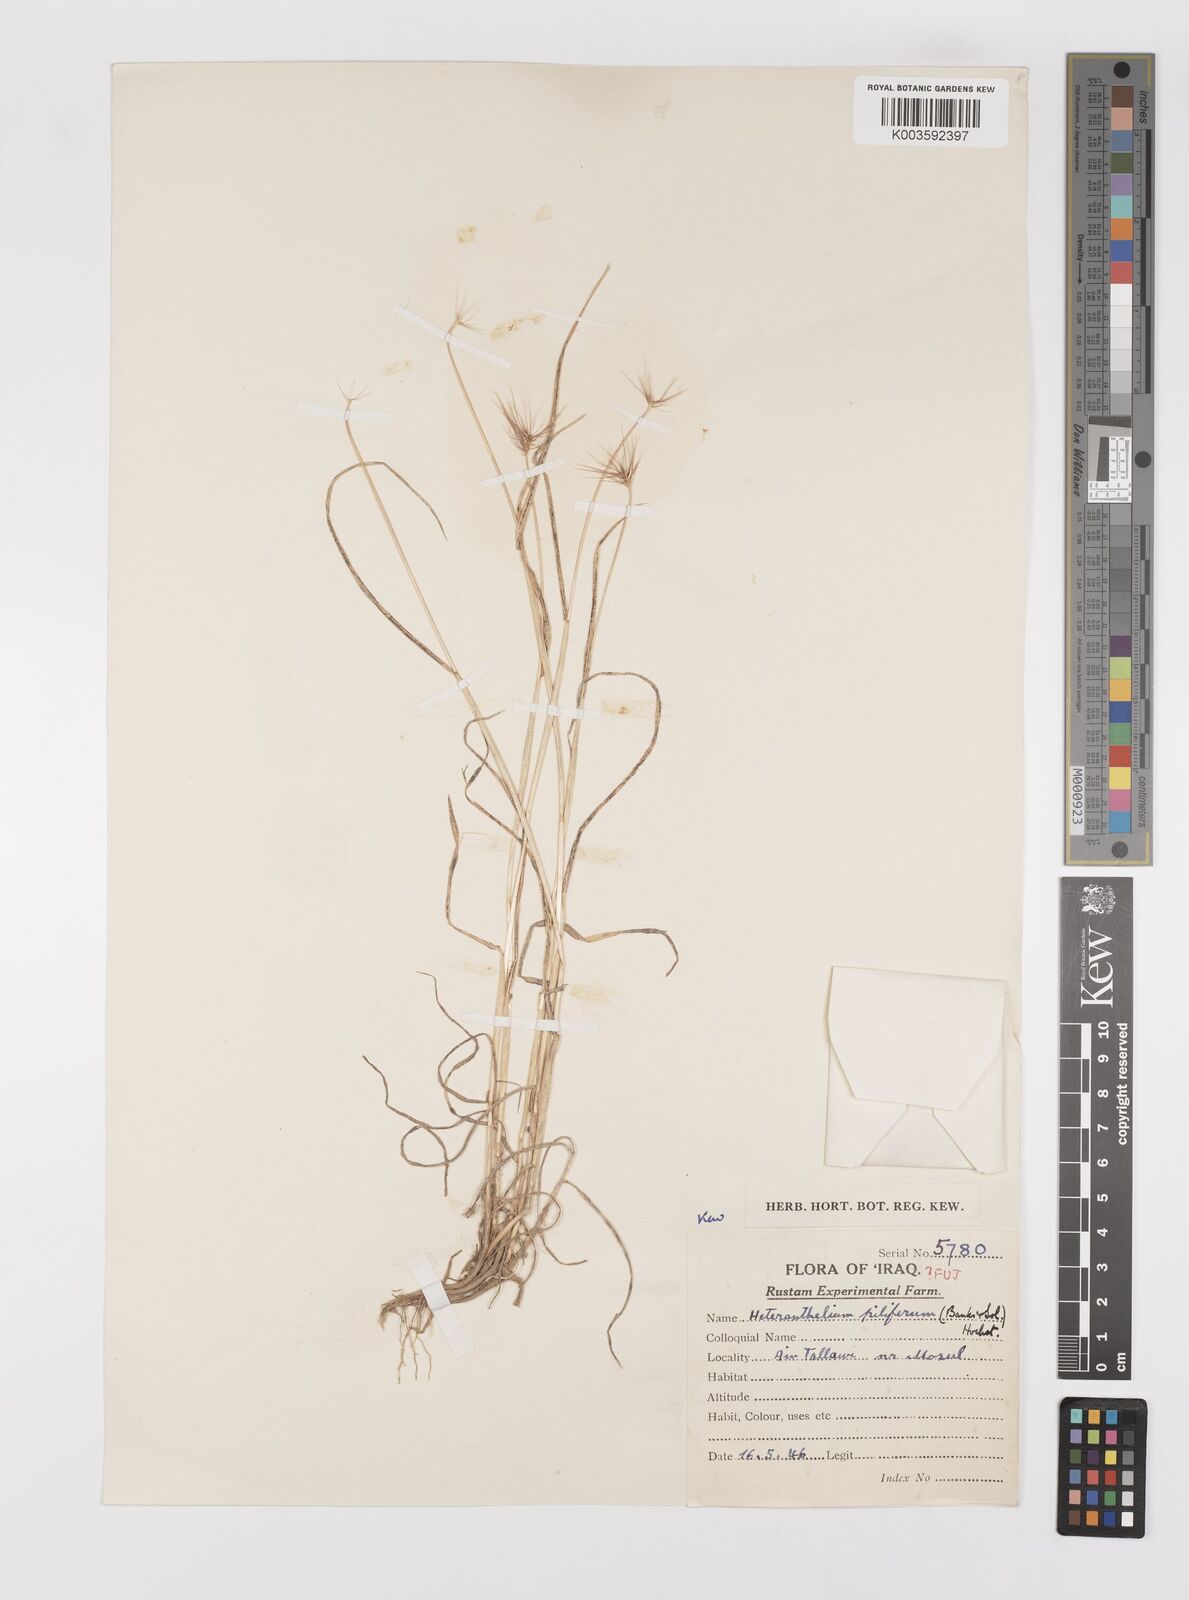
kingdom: Plantae
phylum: Tracheophyta
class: Liliopsida
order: Poales
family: Poaceae
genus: Heteranthelium
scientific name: Heteranthelium piliferum
